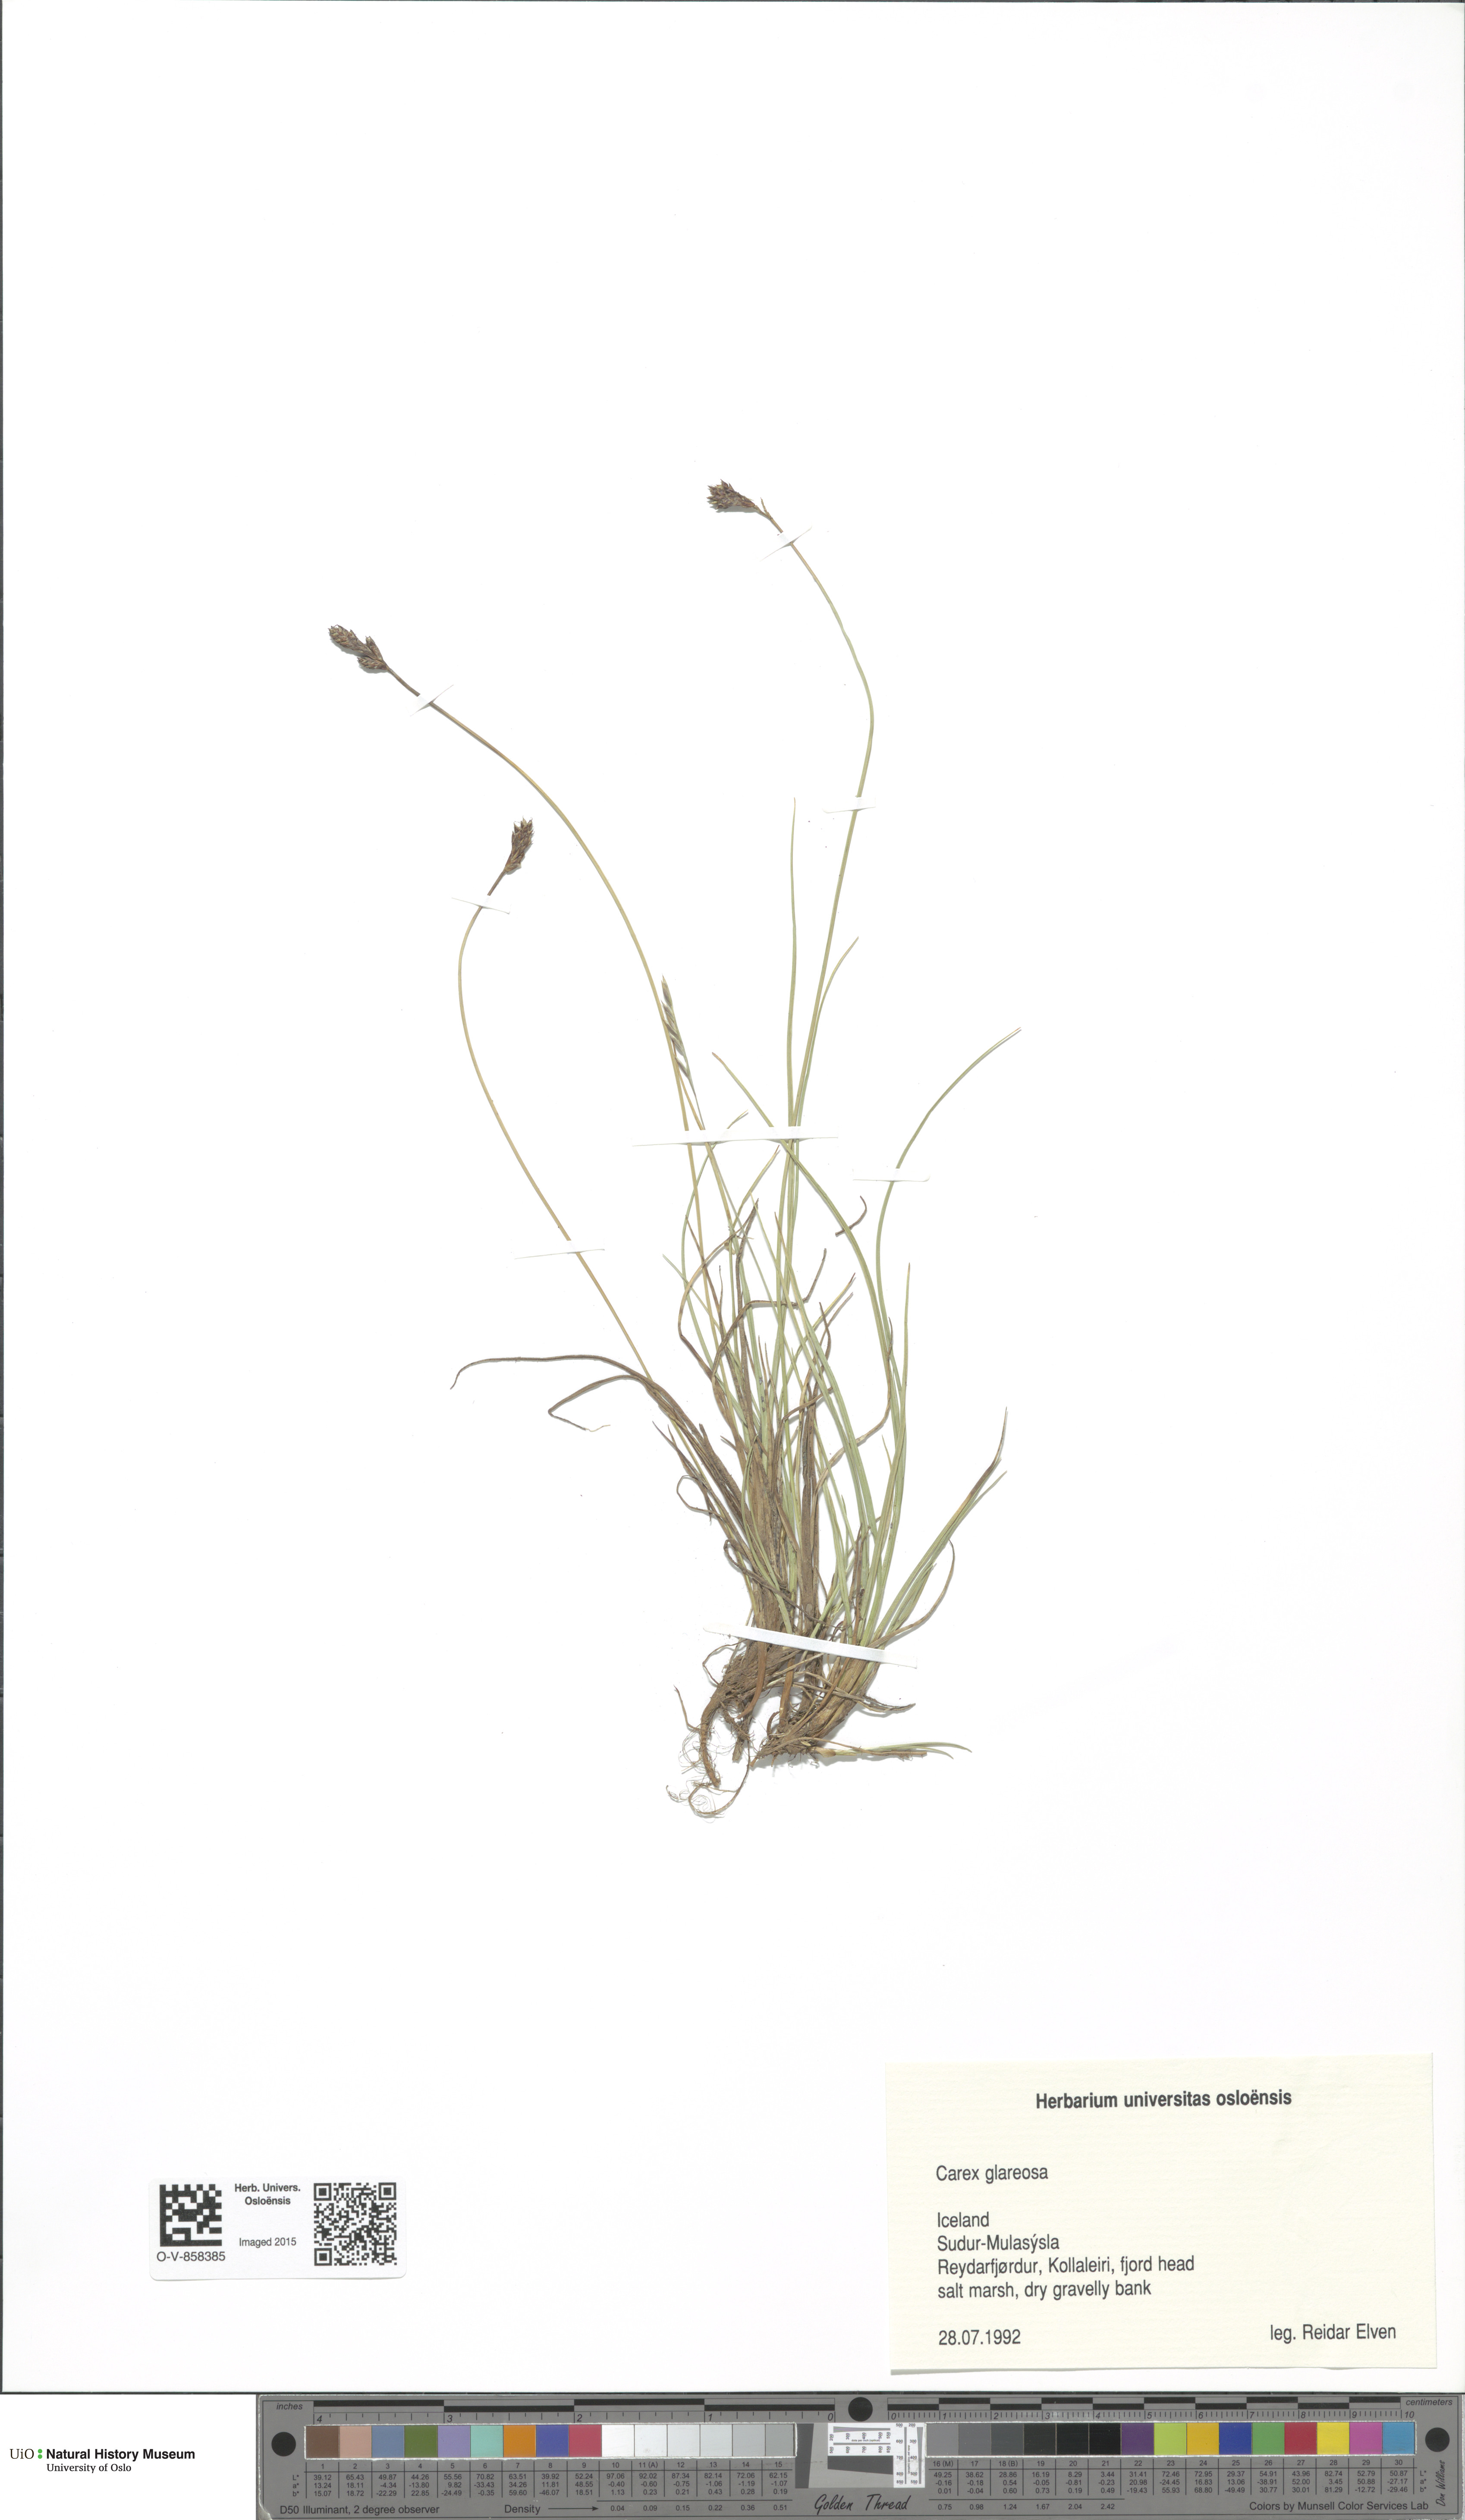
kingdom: Plantae
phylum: Tracheophyta
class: Liliopsida
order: Poales
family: Cyperaceae
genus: Carex
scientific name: Carex glareosa
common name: Clustered sedge
